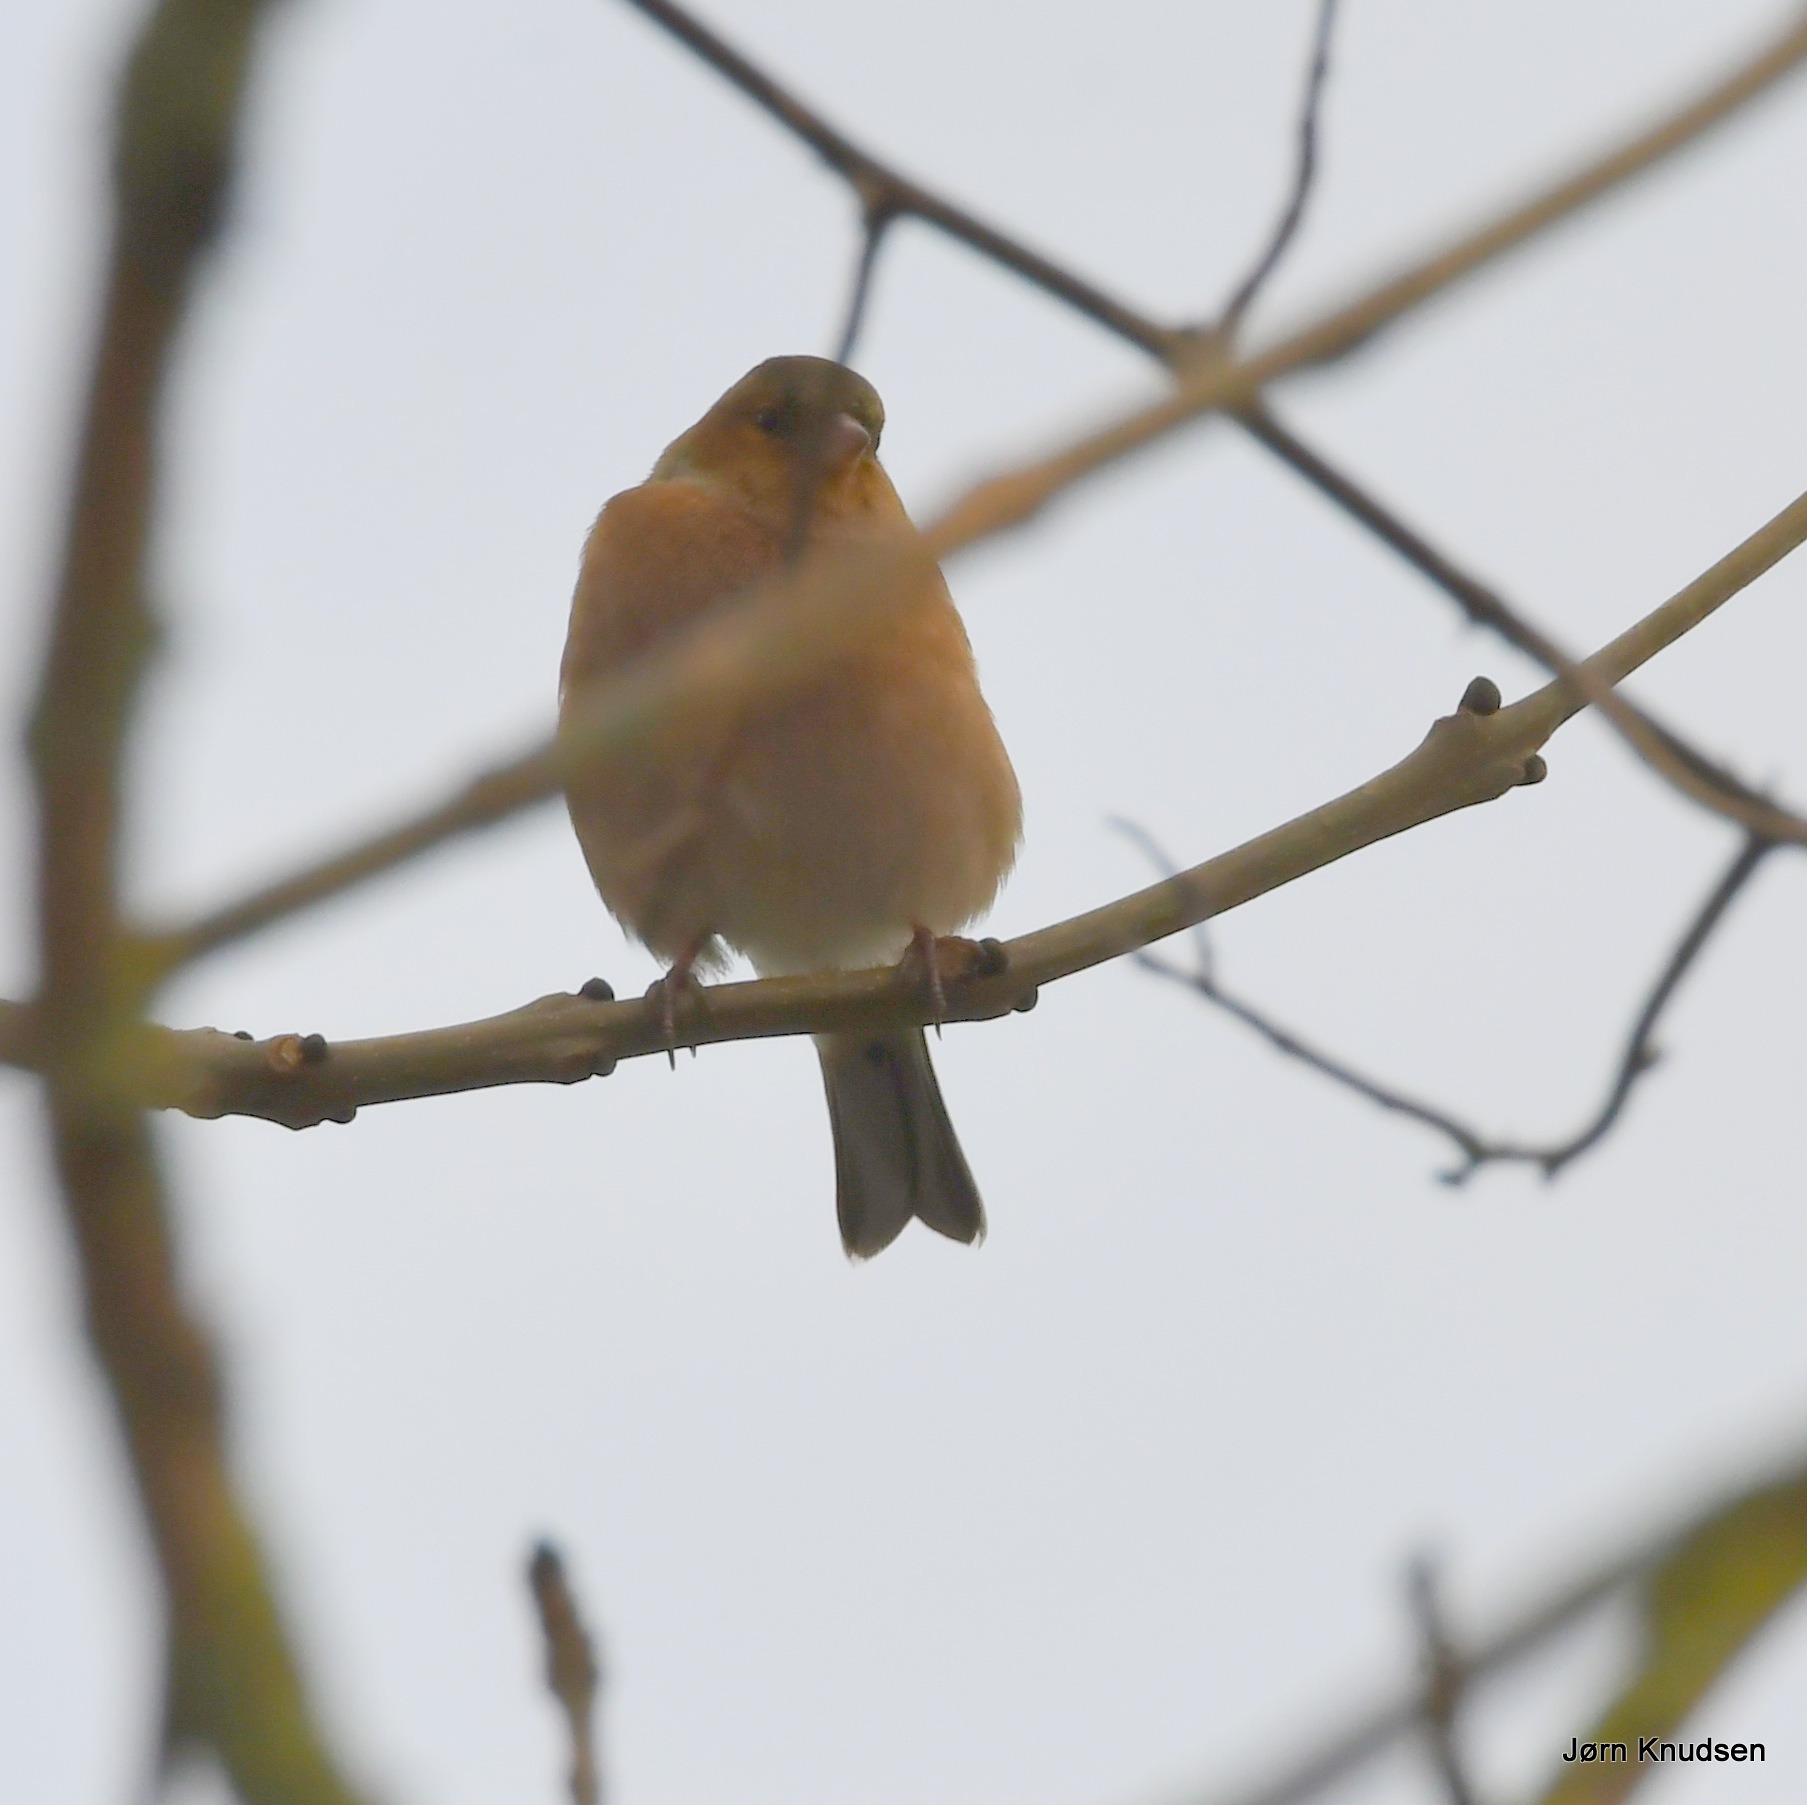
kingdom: Animalia
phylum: Chordata
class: Aves
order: Passeriformes
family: Fringillidae
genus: Fringilla
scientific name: Fringilla coelebs
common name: Bogfinke
